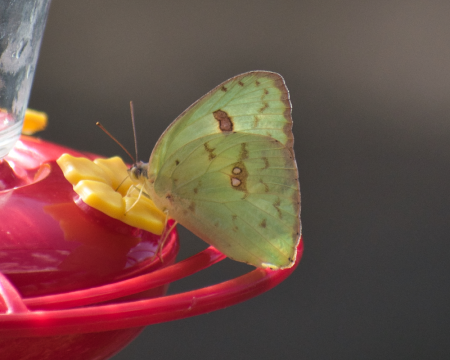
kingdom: Animalia
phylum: Arthropoda
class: Insecta
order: Lepidoptera
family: Pieridae
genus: Phoebis
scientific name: Phoebis sennae
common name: Cloudless Sulphur
